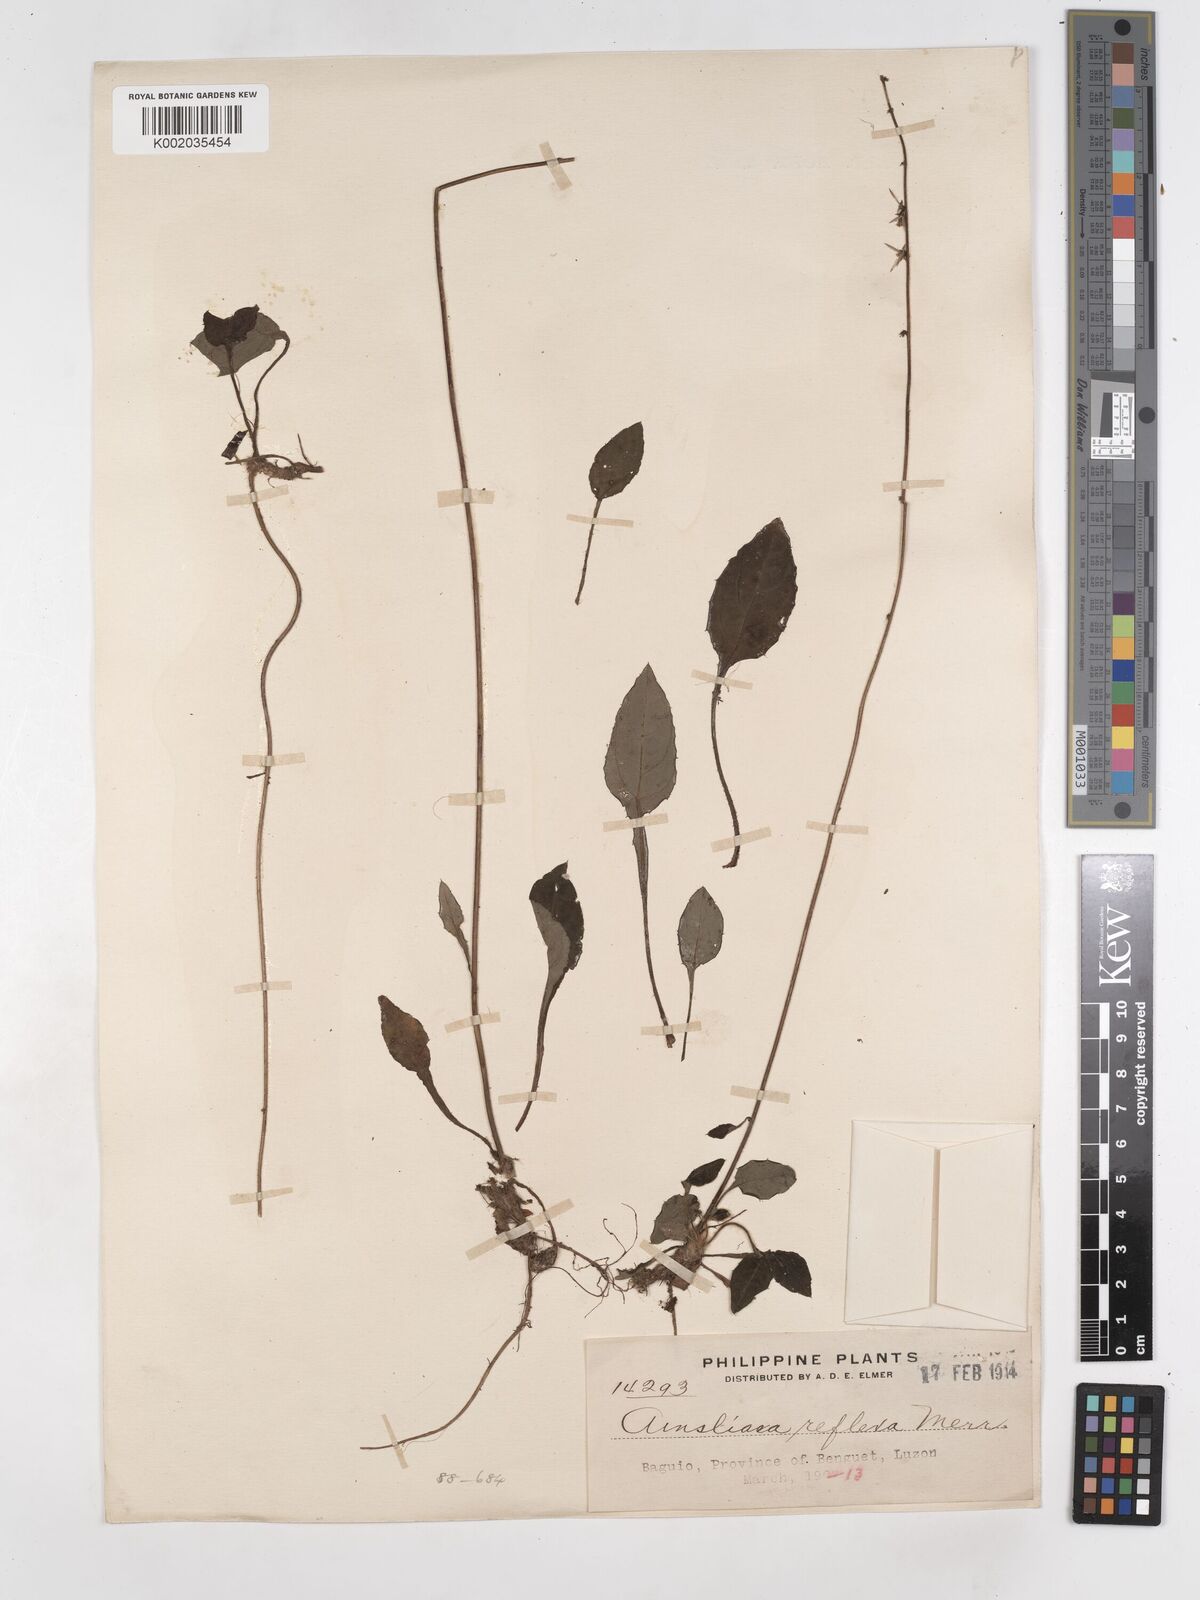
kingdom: Plantae
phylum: Tracheophyta
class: Magnoliopsida
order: Asterales
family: Asteraceae
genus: Ainsliaea
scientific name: Ainsliaea reflexa
